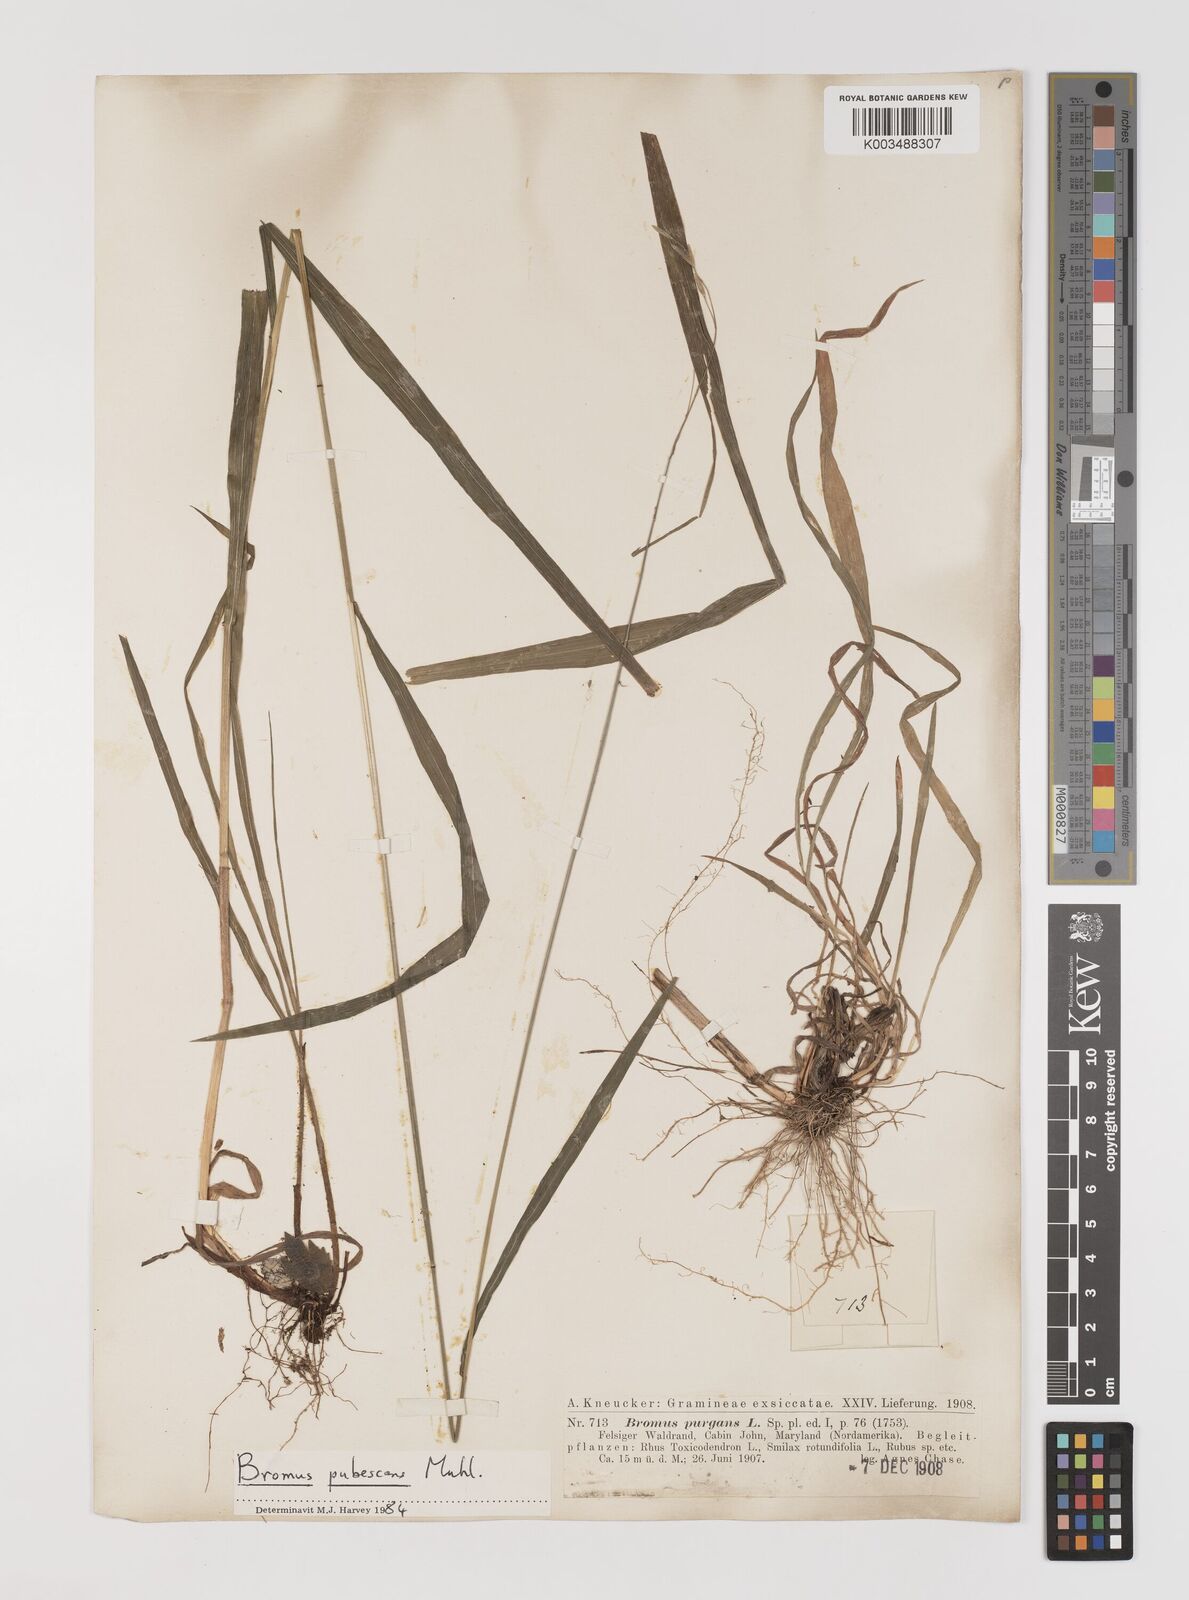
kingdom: Plantae
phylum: Tracheophyta
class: Liliopsida
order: Poales
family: Poaceae
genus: Bromus
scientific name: Bromus pubescens
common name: Hairy wood brome grass
